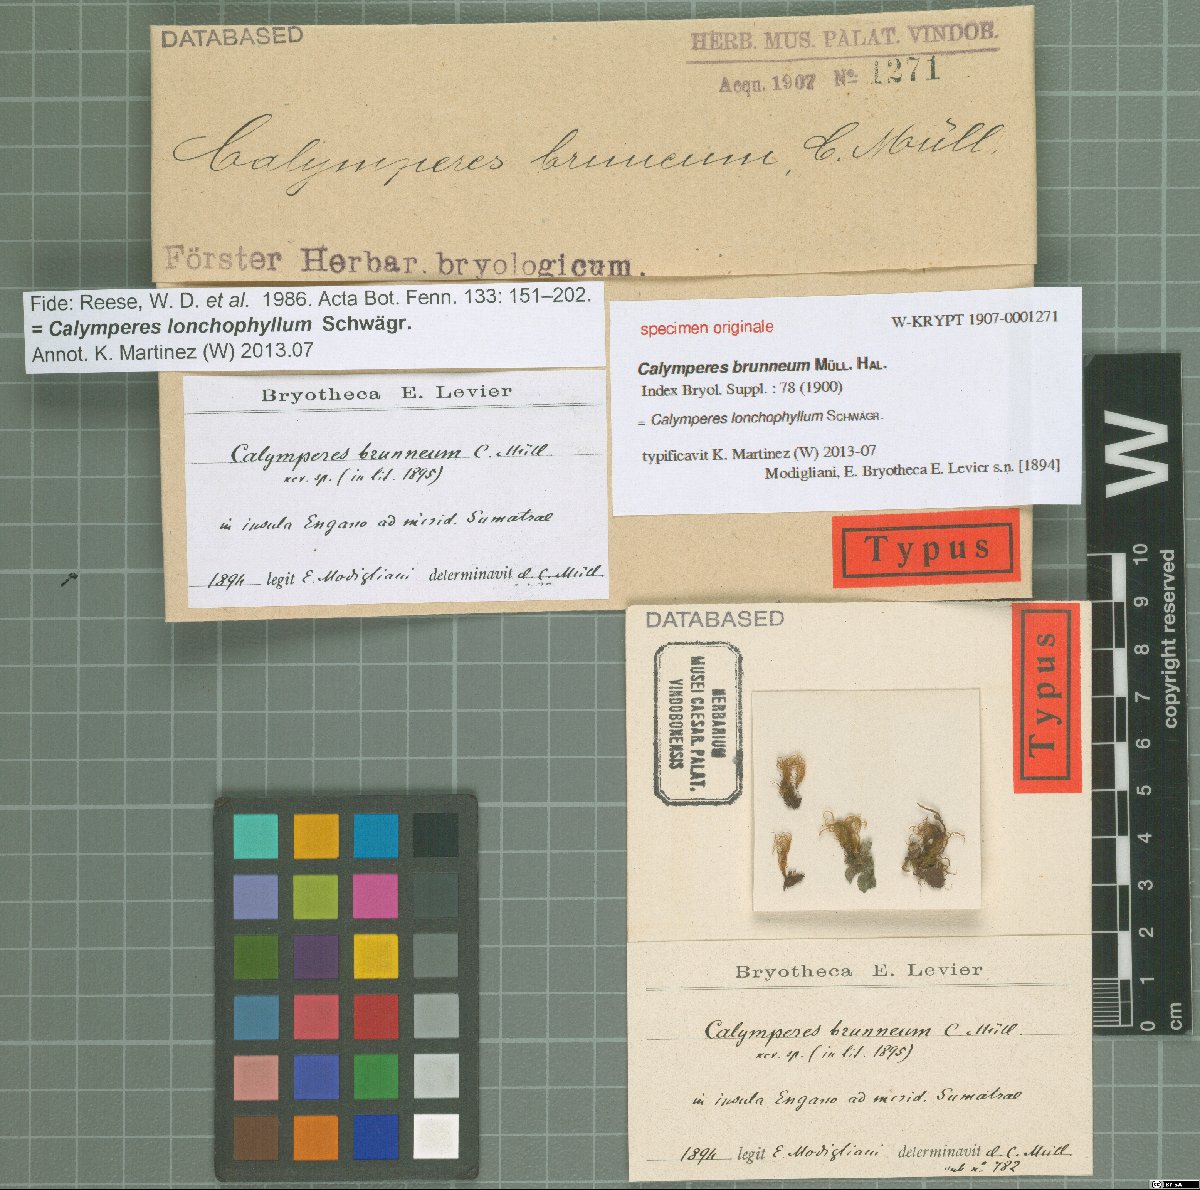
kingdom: Plantae
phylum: Bryophyta
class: Bryopsida
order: Dicranales
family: Calymperaceae
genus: Calymperes
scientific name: Calymperes lonchophyllum
